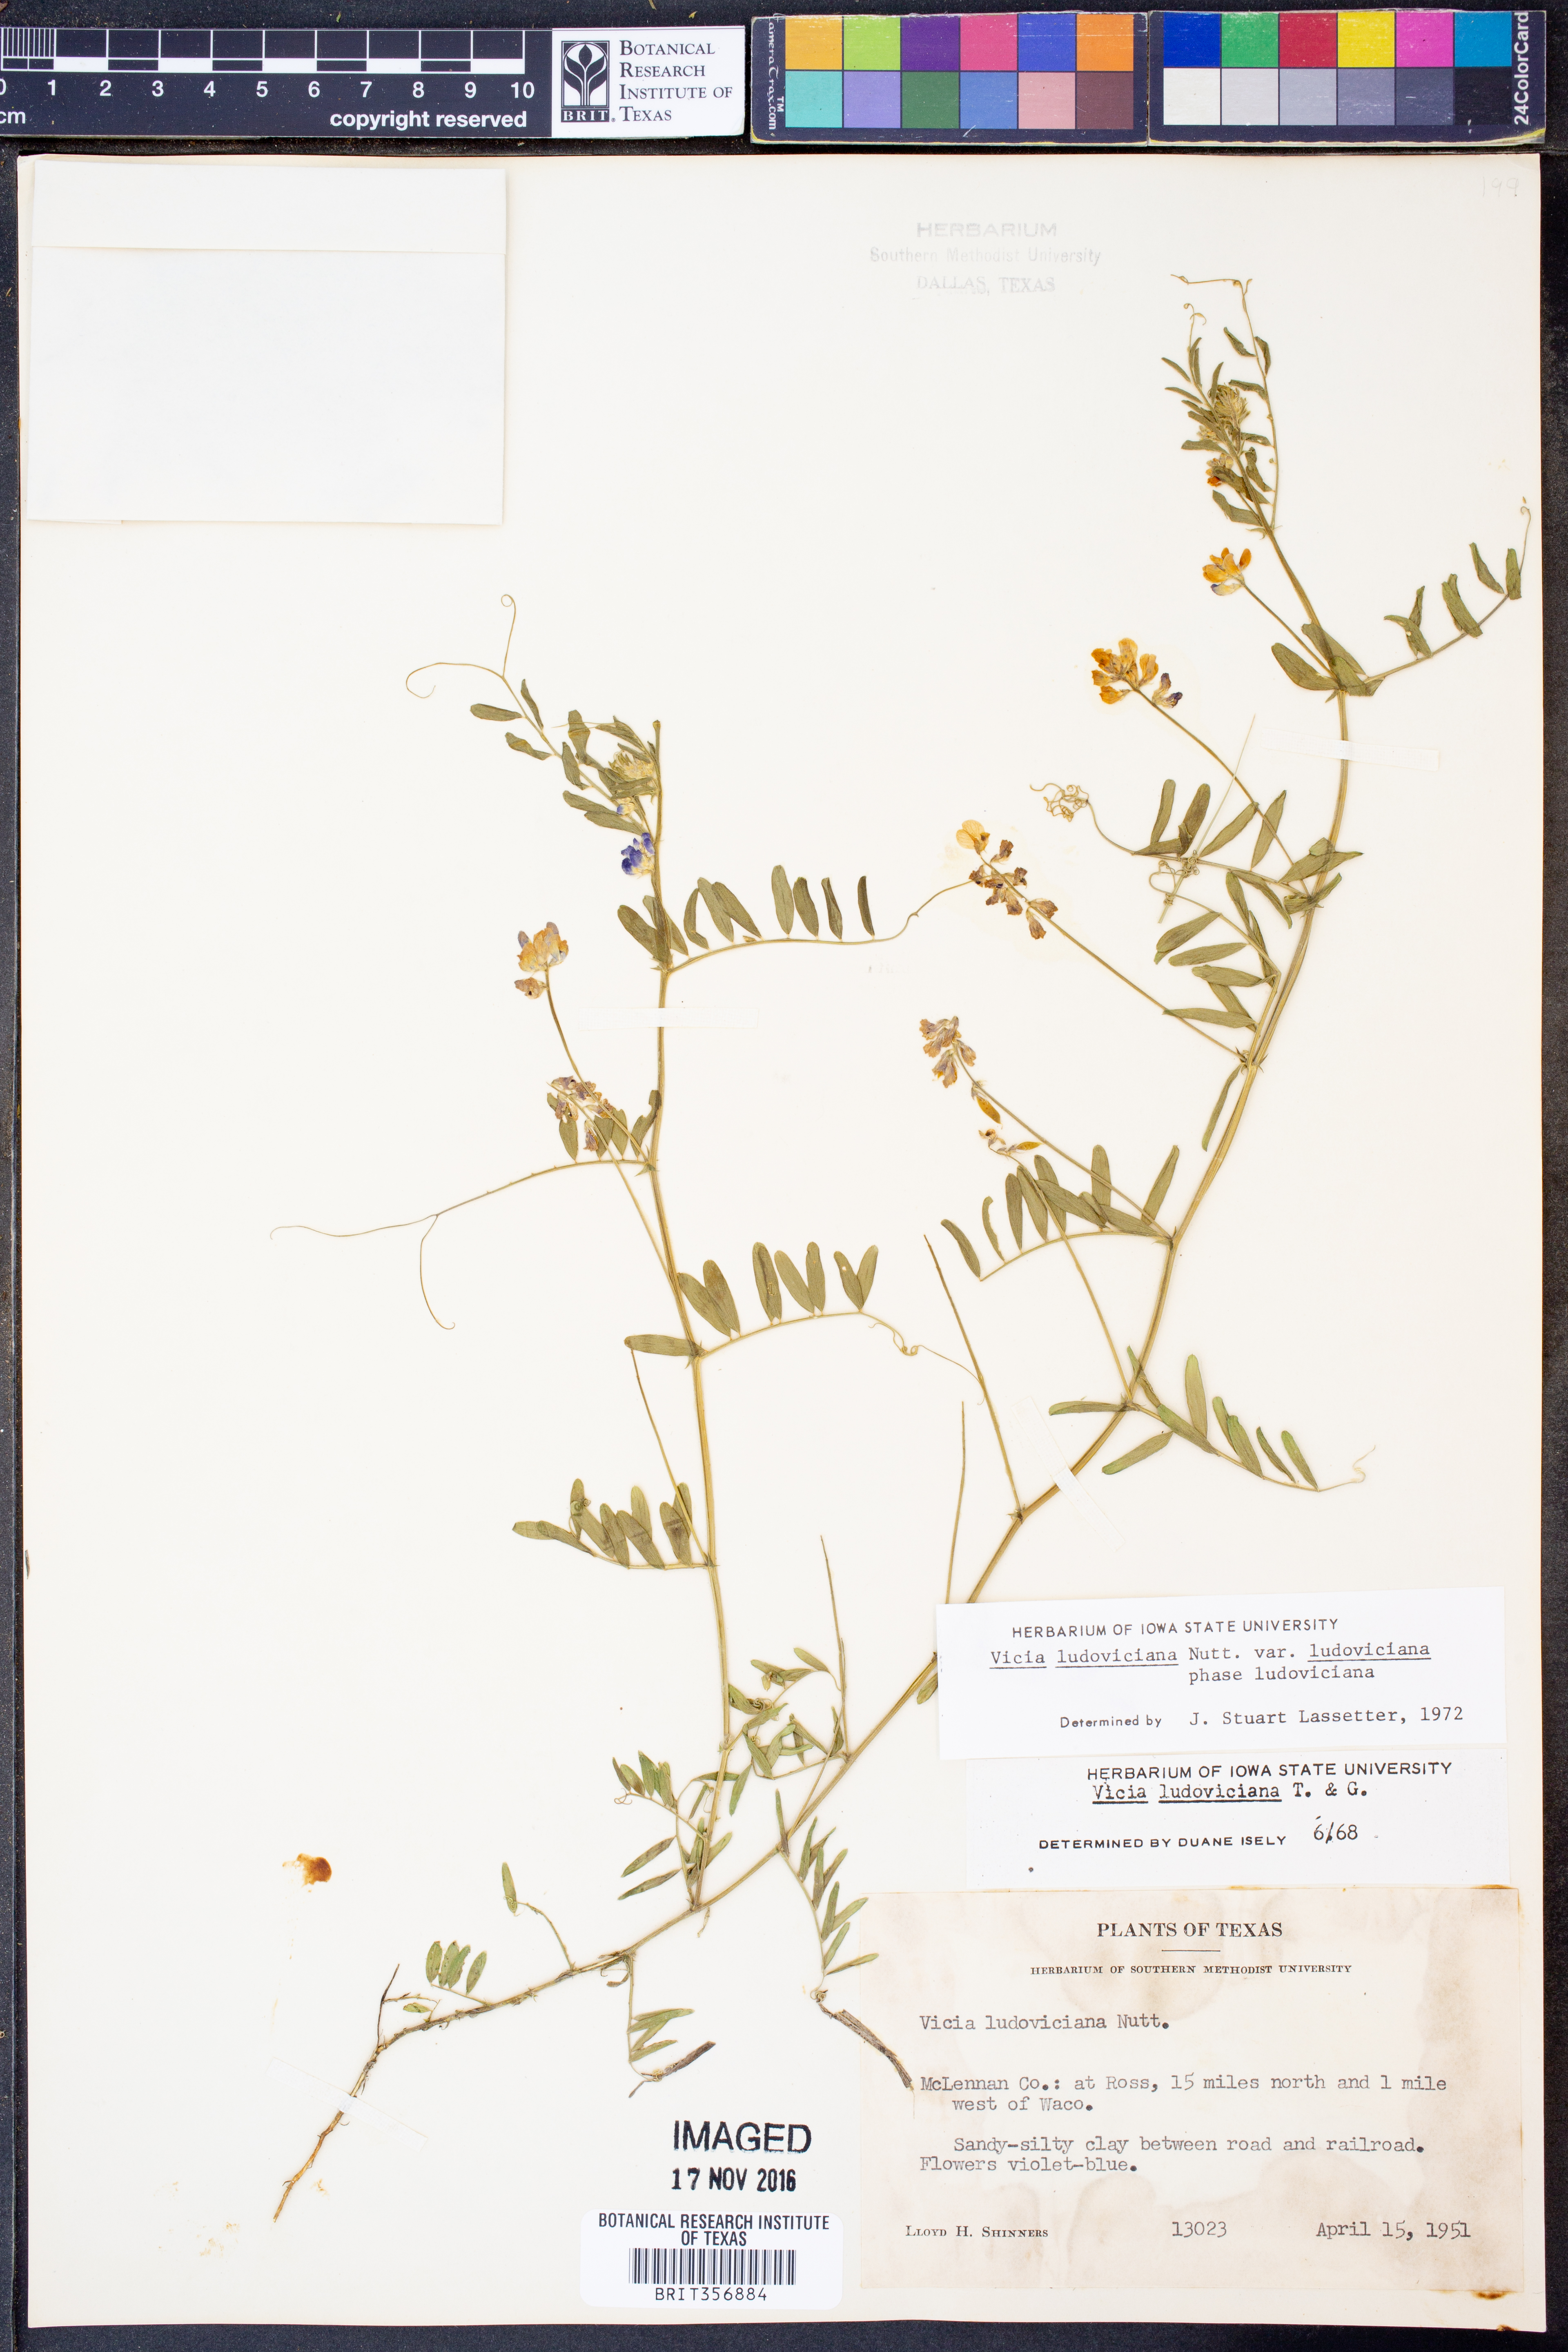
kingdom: Plantae
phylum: Tracheophyta
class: Magnoliopsida
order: Fabales
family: Fabaceae
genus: Vicia
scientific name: Vicia ludoviciana
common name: Louisiana vetch
